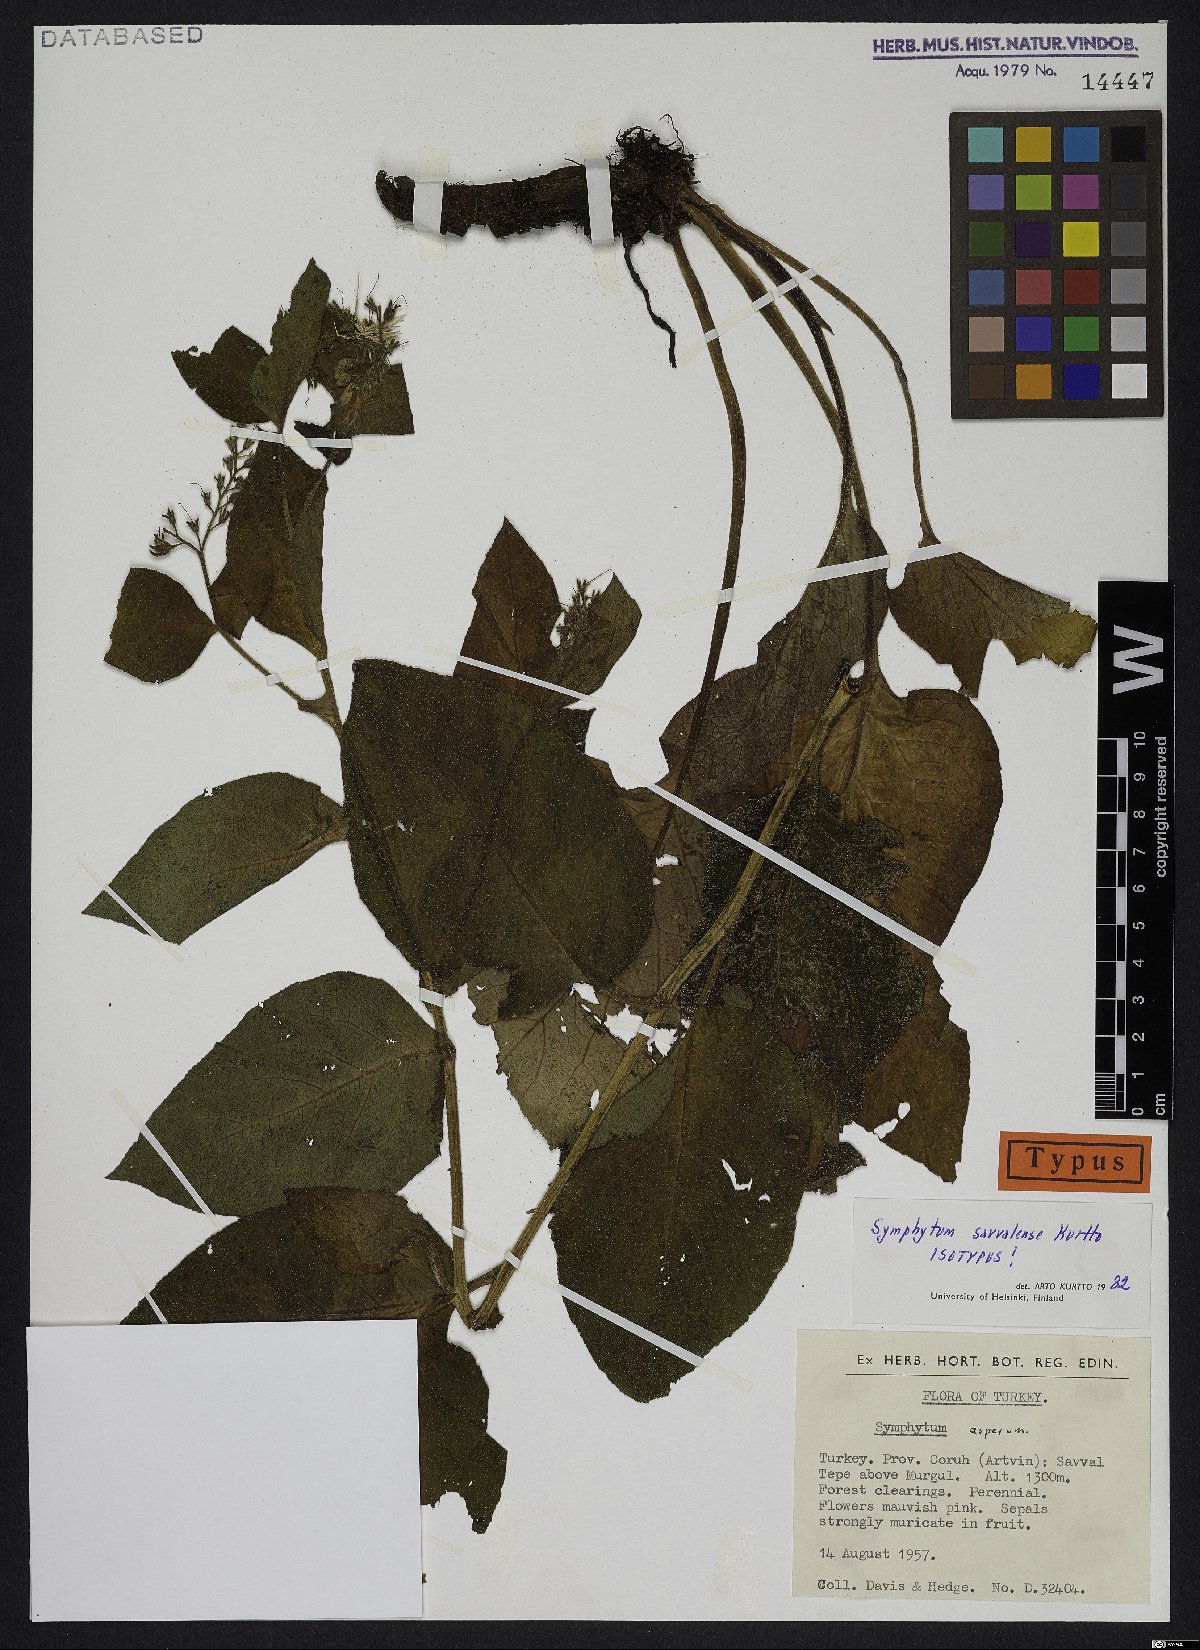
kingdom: Plantae
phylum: Tracheophyta
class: Magnoliopsida
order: Boraginales
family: Boraginaceae
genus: Symphytum
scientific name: Symphytum savvalense
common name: Savvalian comfrey
